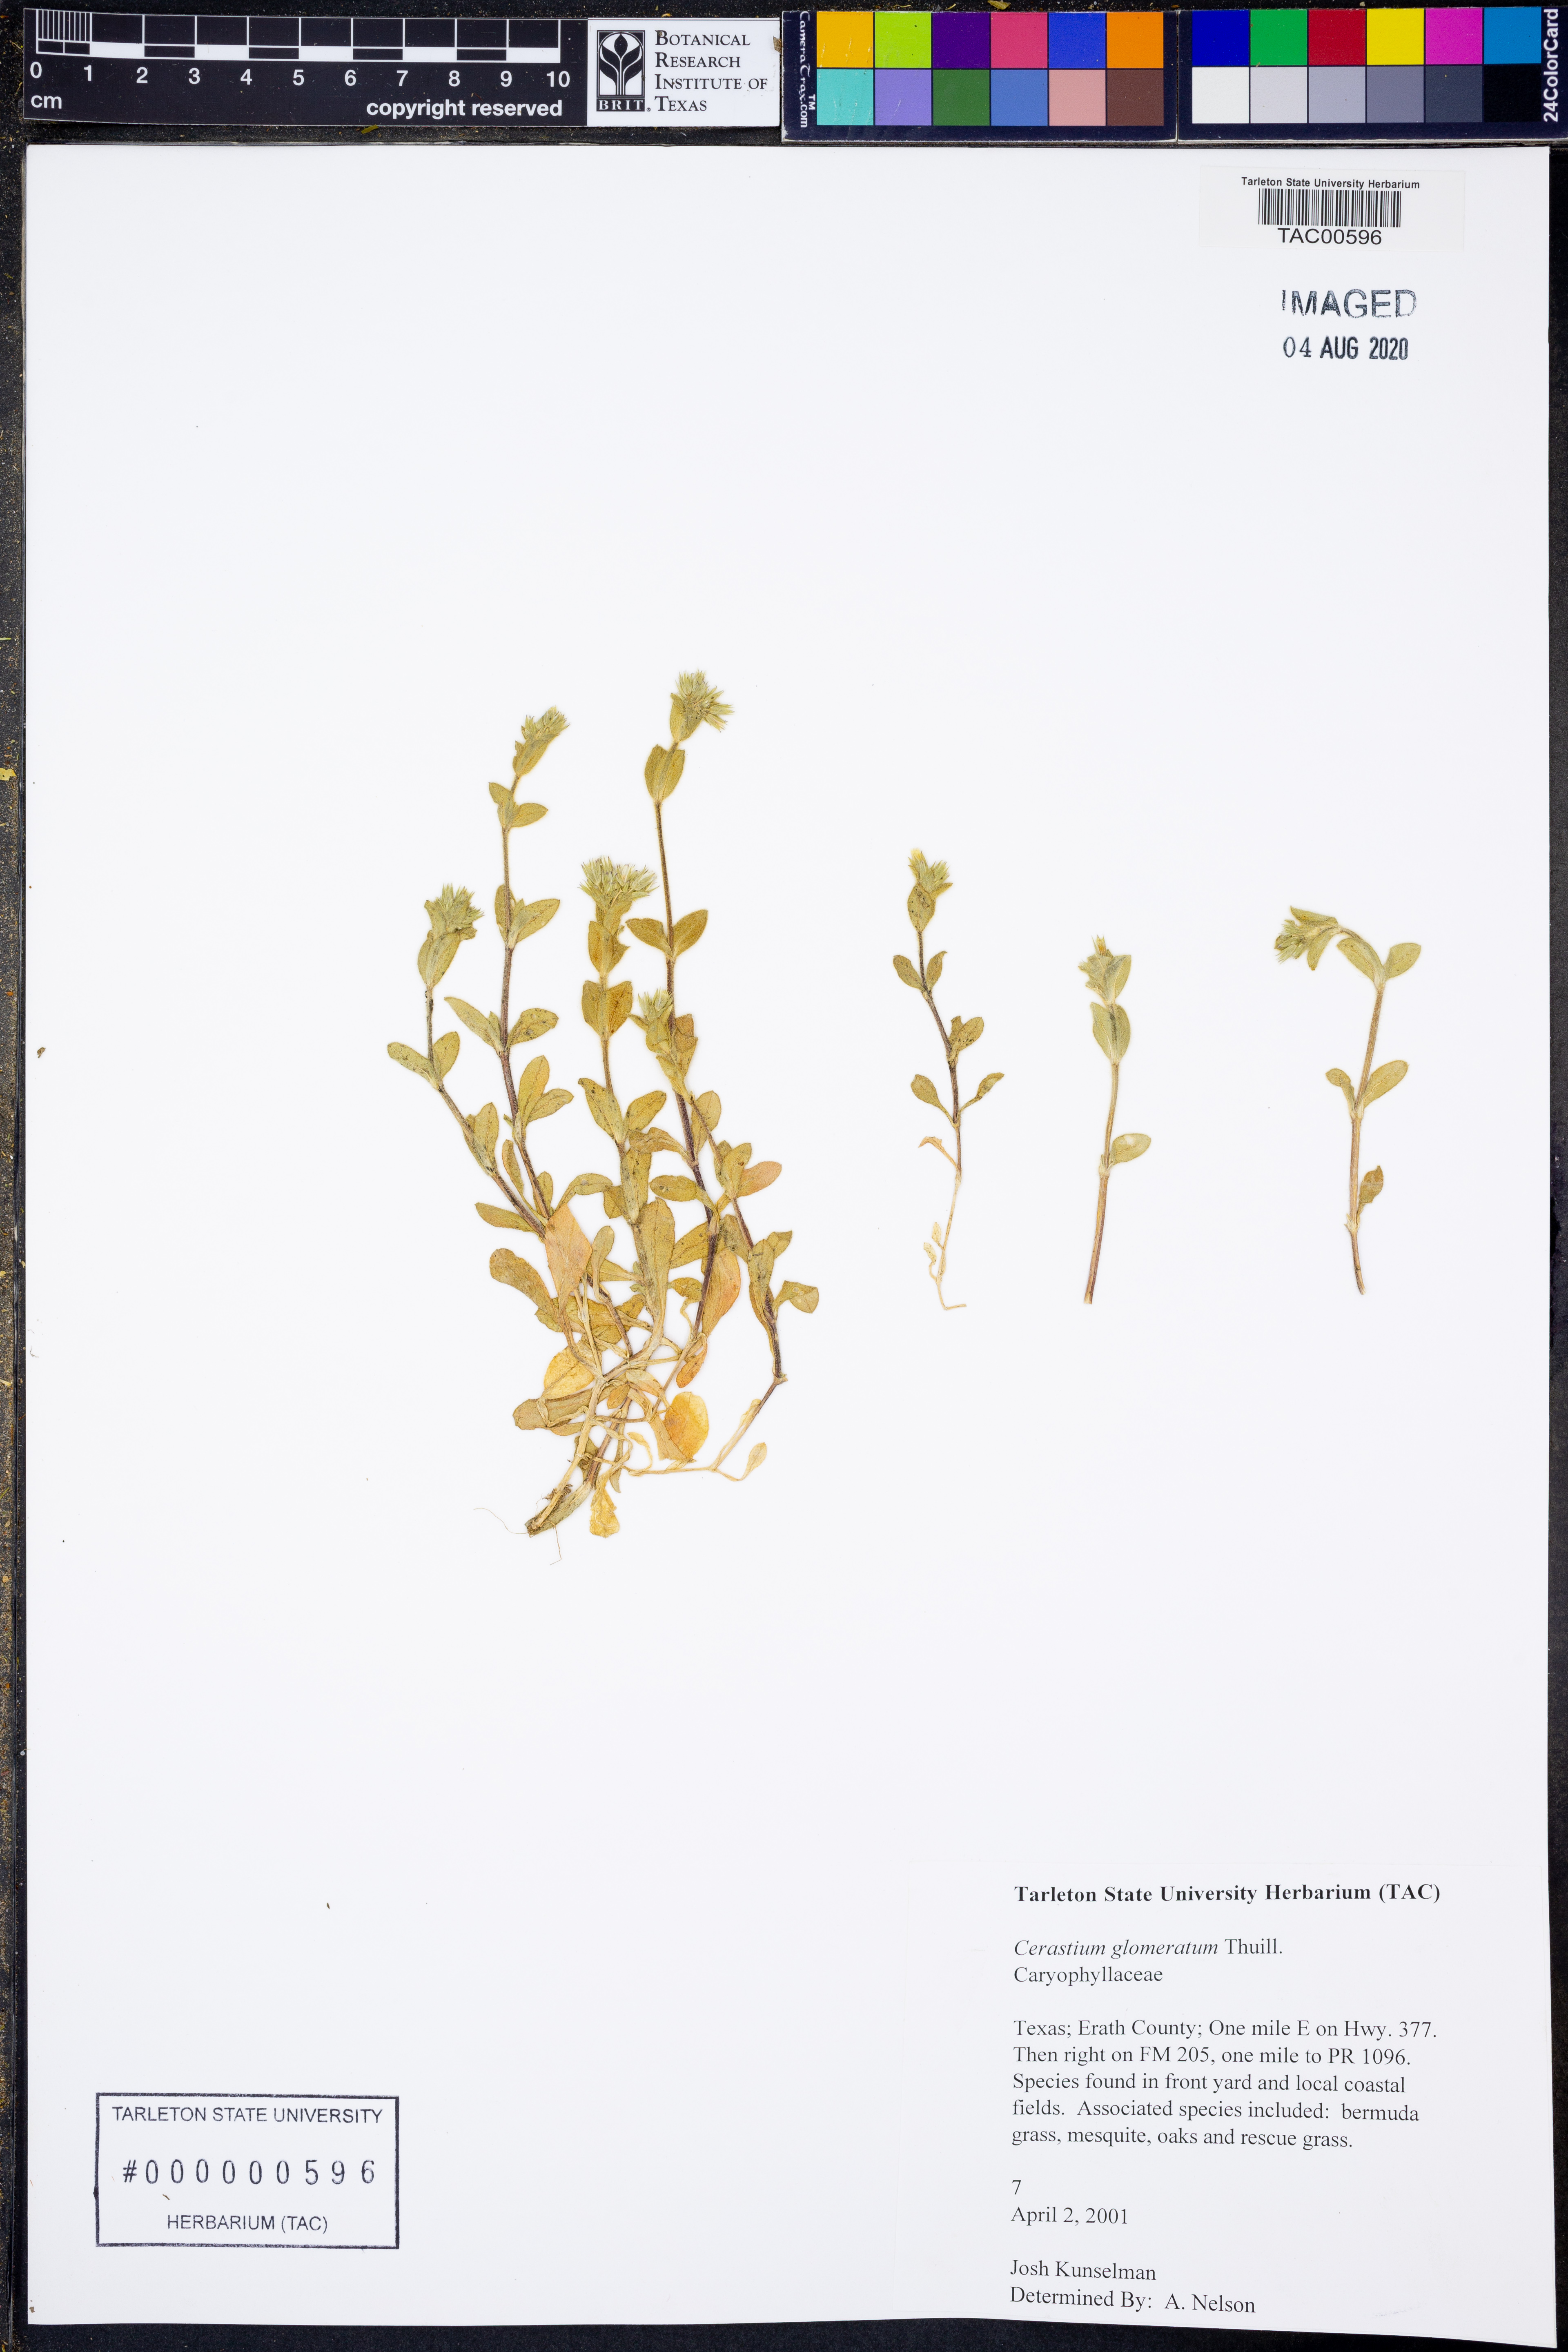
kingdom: Plantae
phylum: Tracheophyta
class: Magnoliopsida
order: Caryophyllales
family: Caryophyllaceae
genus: Cerastium
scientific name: Cerastium glomeratum
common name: Sticky chickweed
